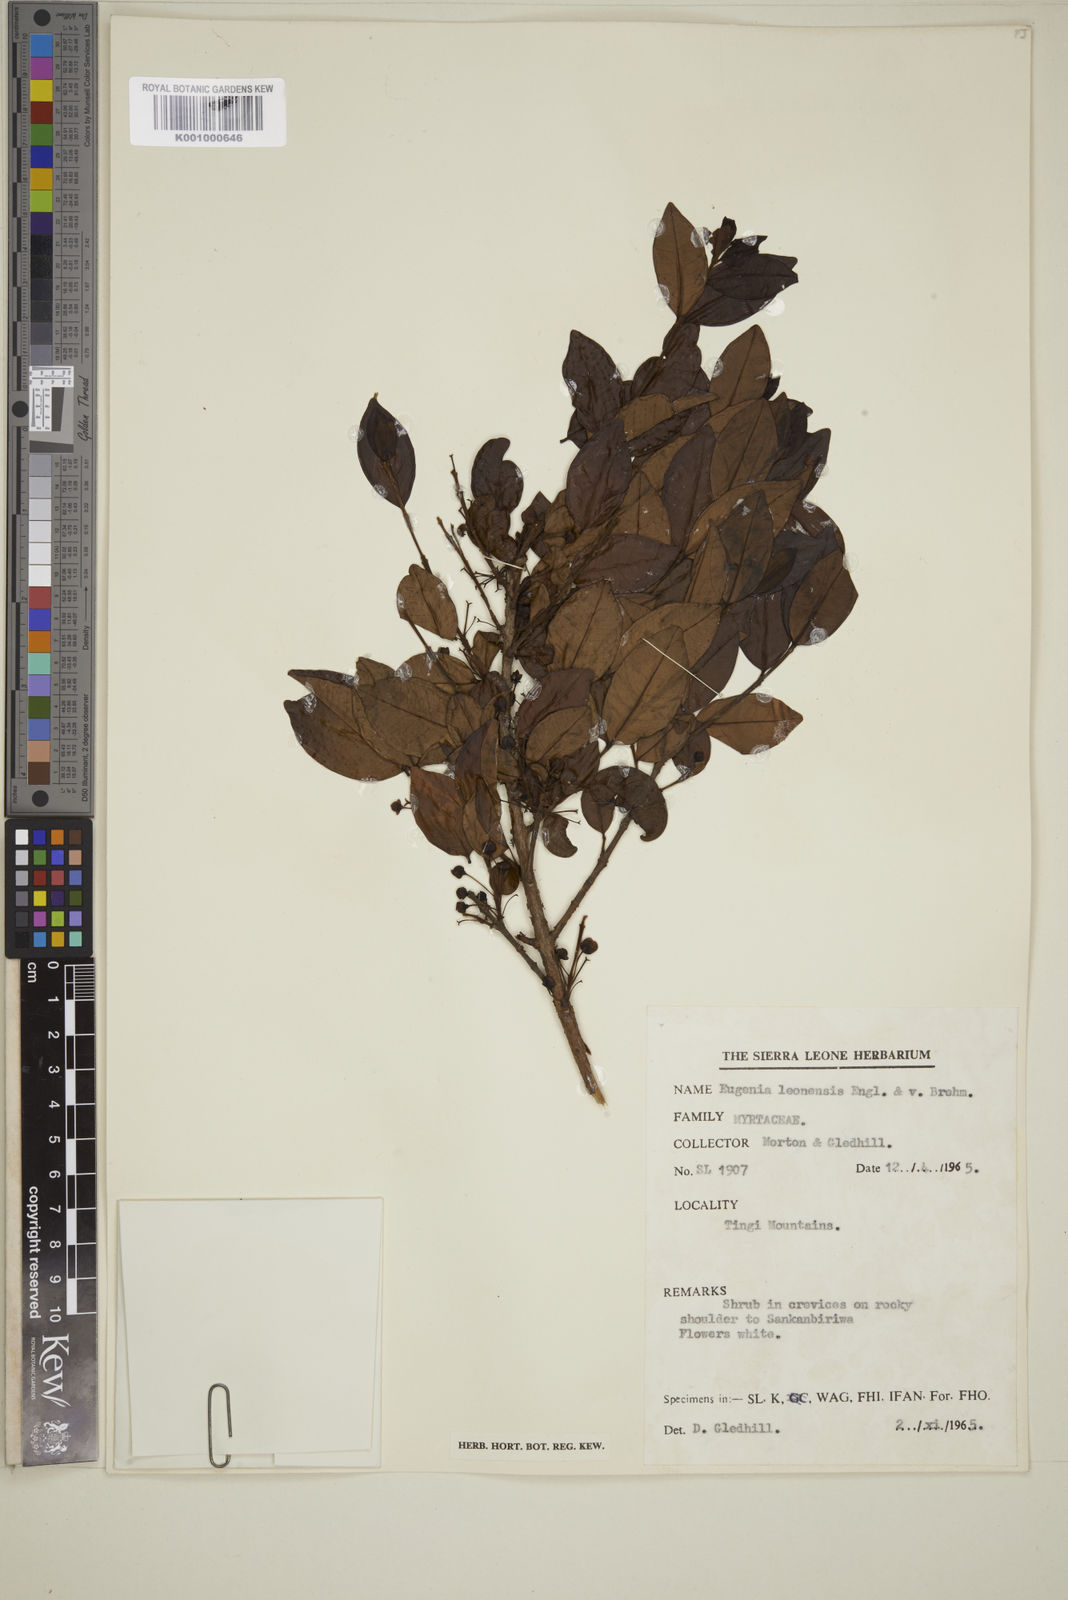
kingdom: Plantae
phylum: Tracheophyta
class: Magnoliopsida
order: Myrtales
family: Myrtaceae
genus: Eugenia
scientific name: Eugenia leonensis
